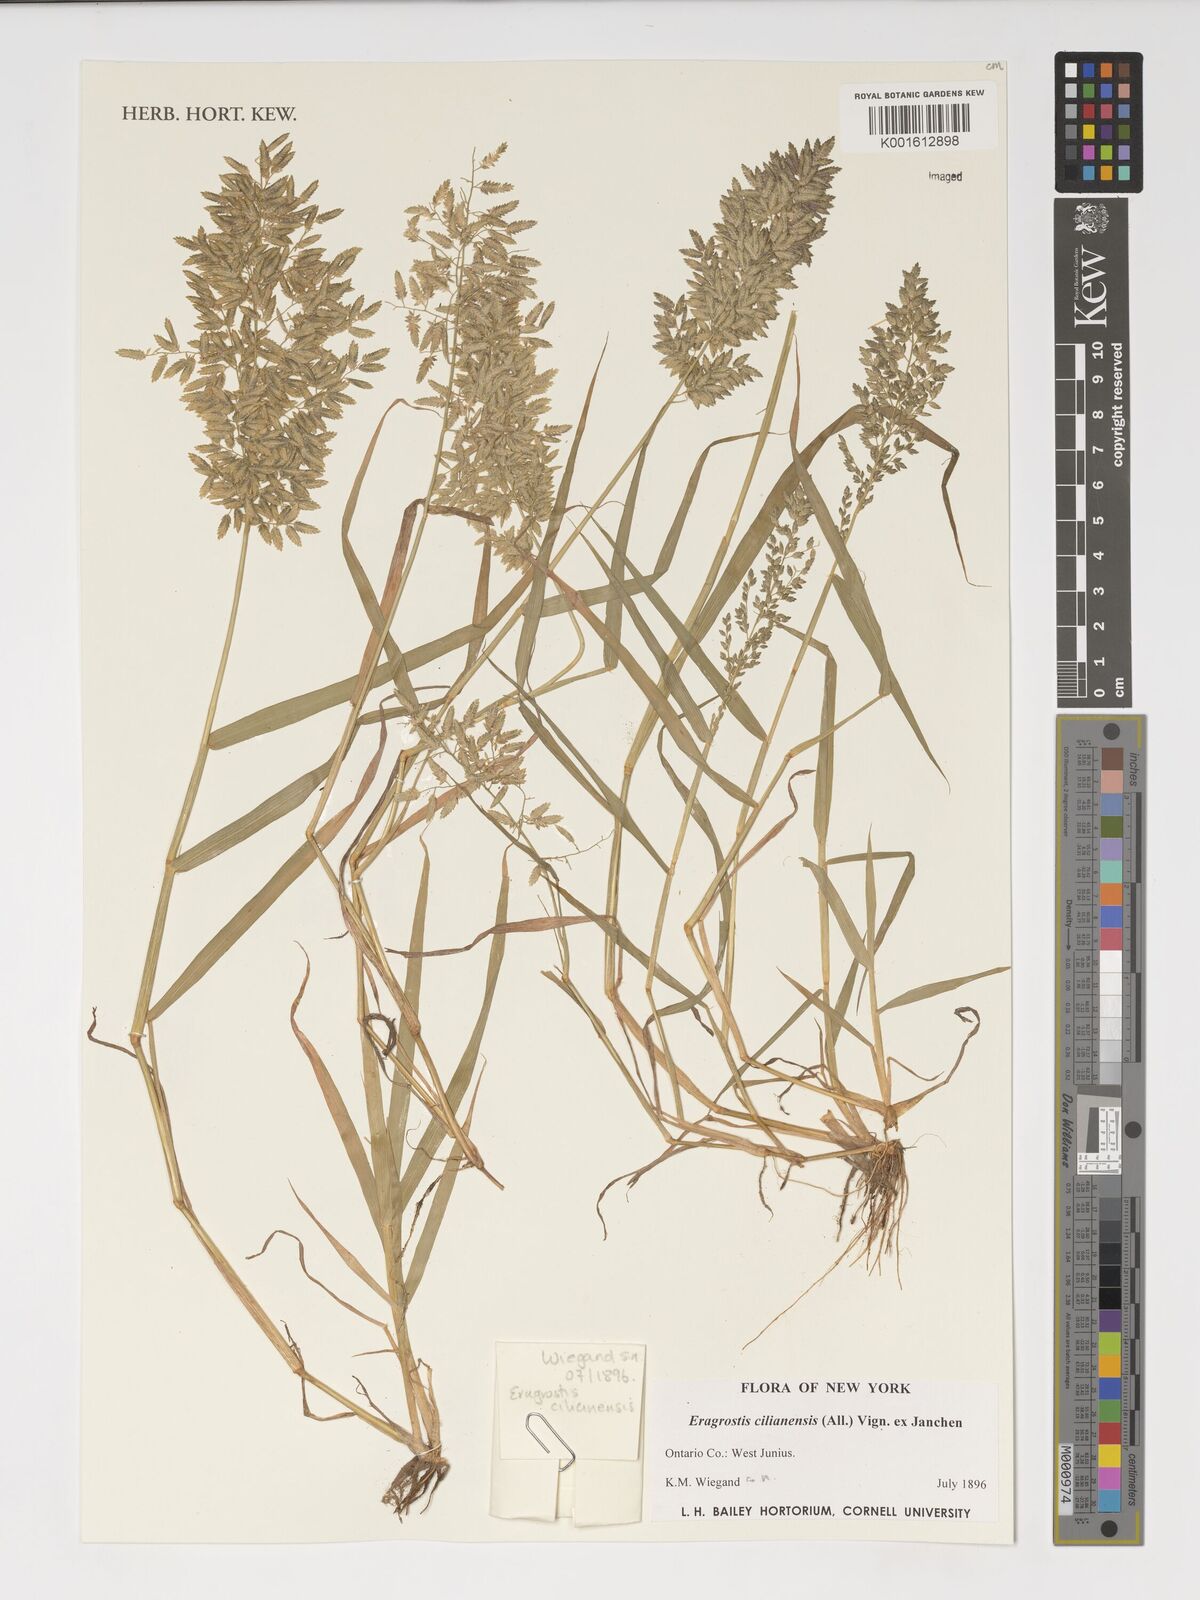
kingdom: Plantae
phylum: Tracheophyta
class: Liliopsida
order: Poales
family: Poaceae
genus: Eragrostis
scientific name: Eragrostis cilianensis
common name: Stinkgrass
